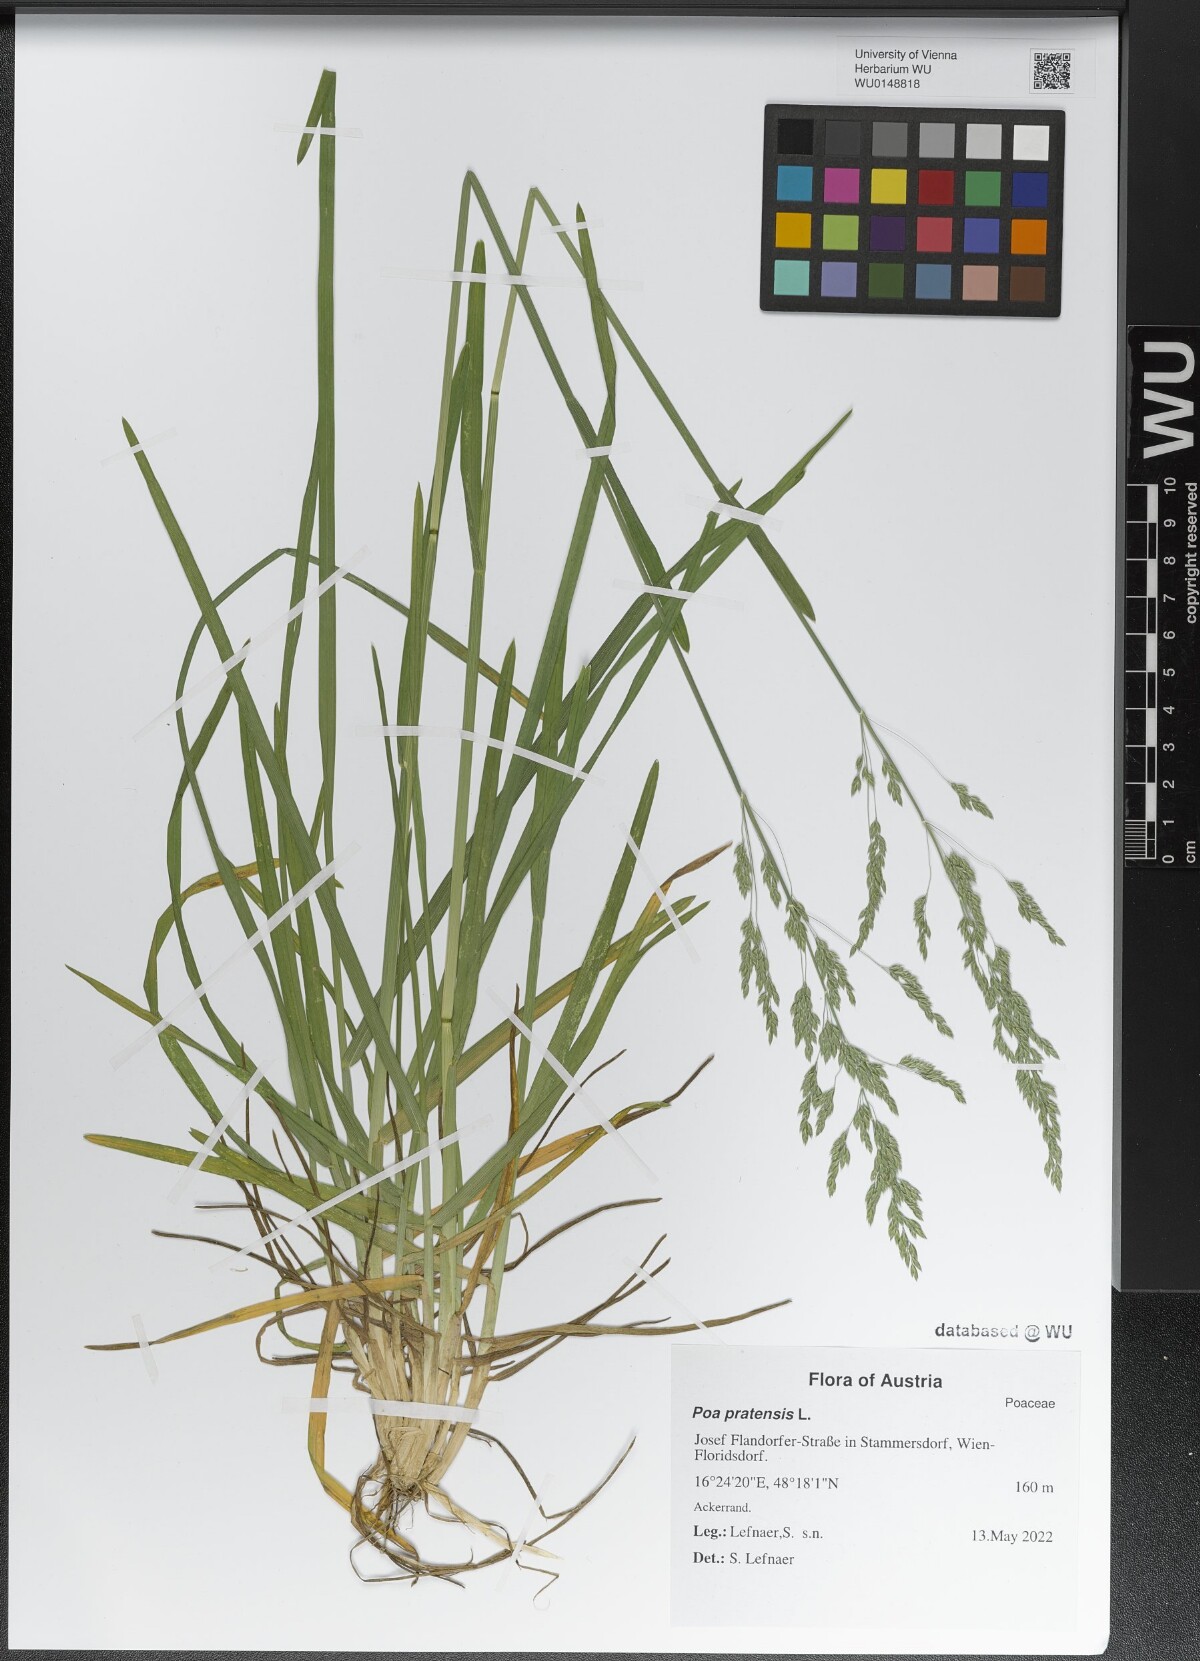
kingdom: Plantae
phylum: Tracheophyta
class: Liliopsida
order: Poales
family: Poaceae
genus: Poa
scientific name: Poa pratensis
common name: Kentucky bluegrass
